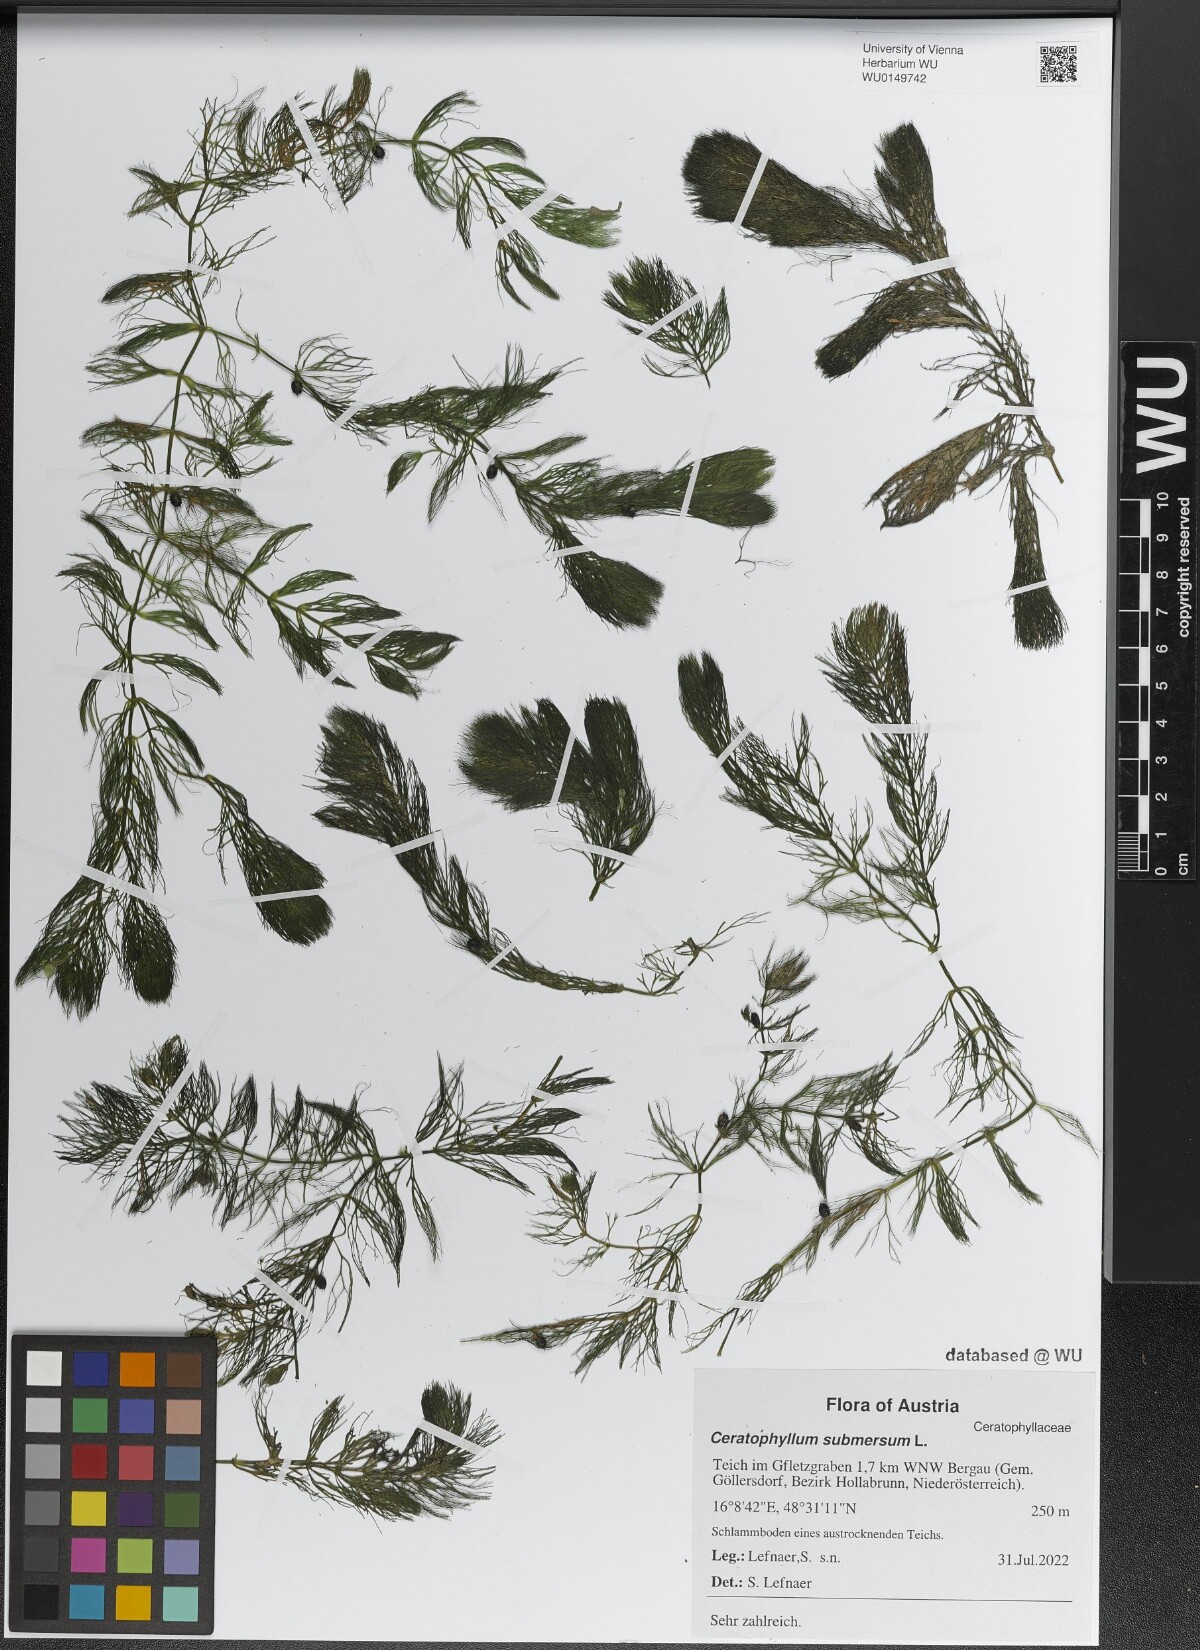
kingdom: Plantae
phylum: Tracheophyta
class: Magnoliopsida
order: Ceratophyllales
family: Ceratophyllaceae
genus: Ceratophyllum
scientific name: Ceratophyllum submersum
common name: Soft hornwort
